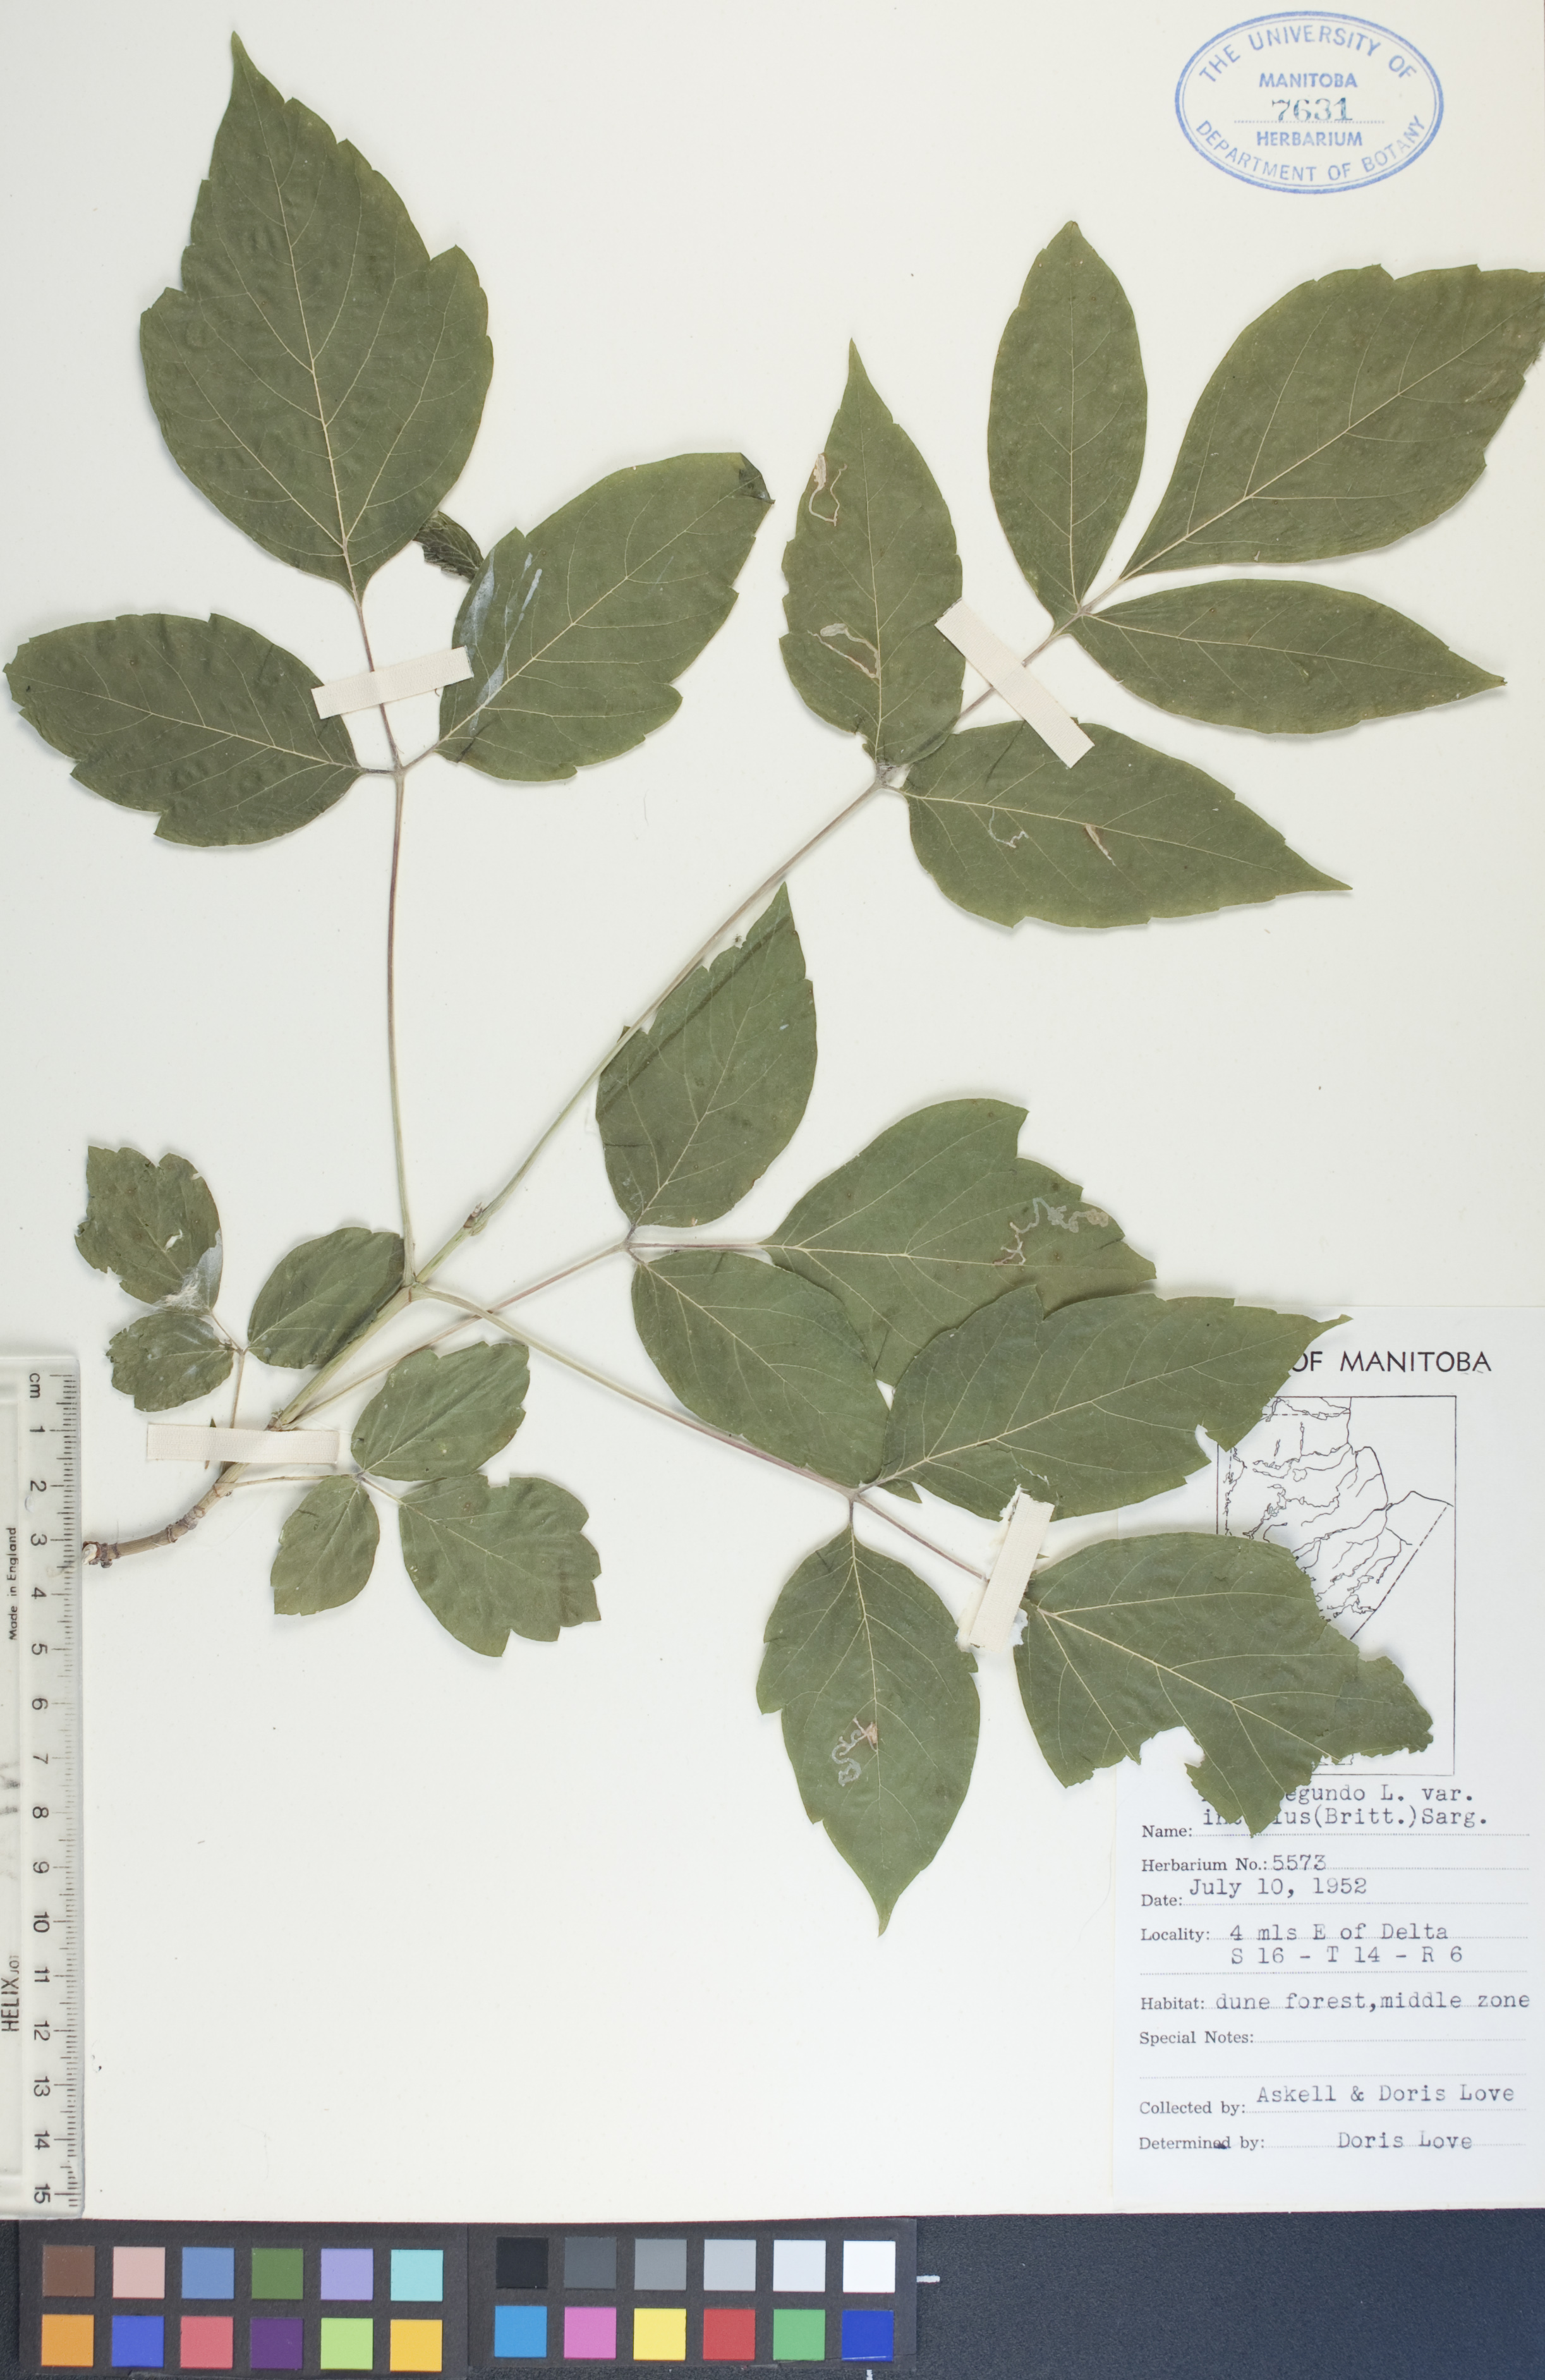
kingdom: Plantae
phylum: Tracheophyta
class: Magnoliopsida
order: Sapindales
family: Sapindaceae
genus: Acer
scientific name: Acer negundo
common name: Ashleaf maple
